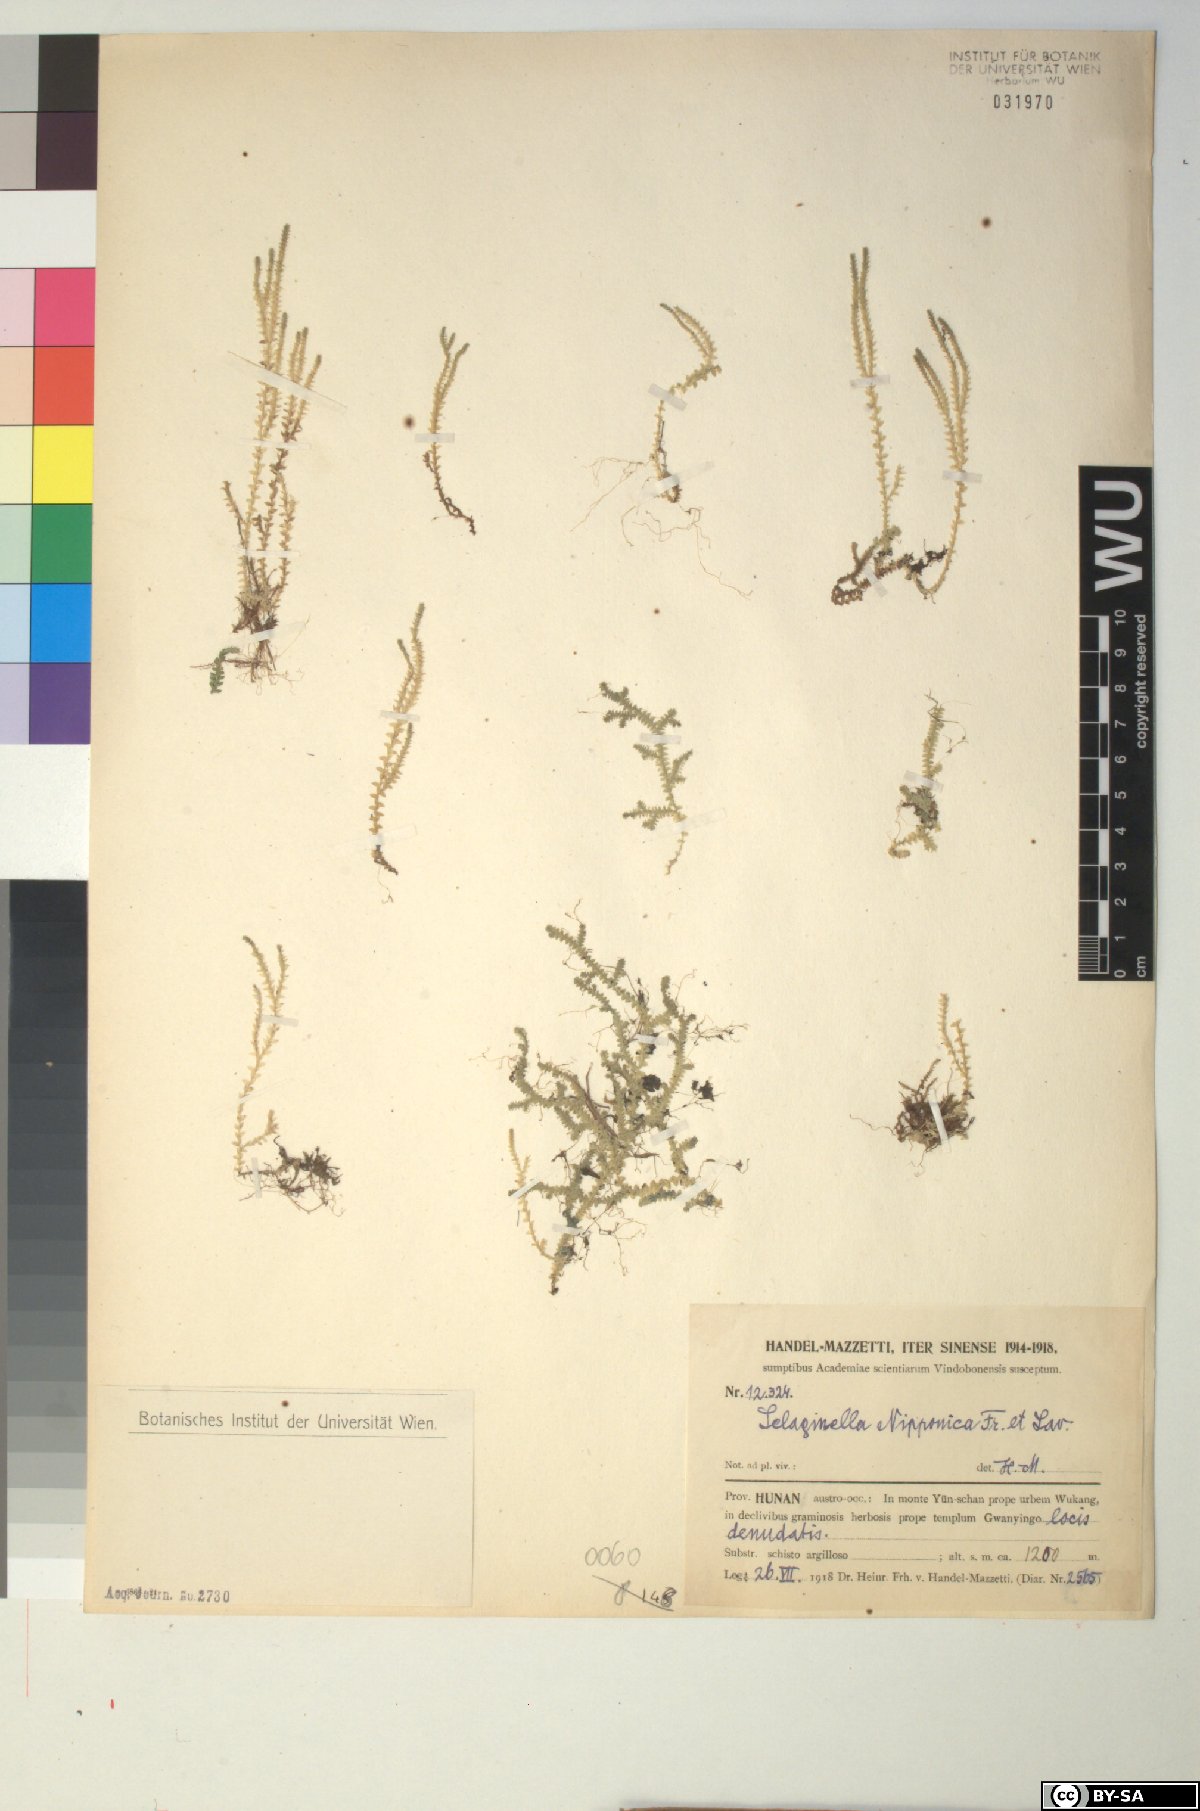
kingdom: Plantae
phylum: Tracheophyta
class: Lycopodiopsida
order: Selaginellales
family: Selaginellaceae
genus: Selaginella
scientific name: Selaginella nipponica
